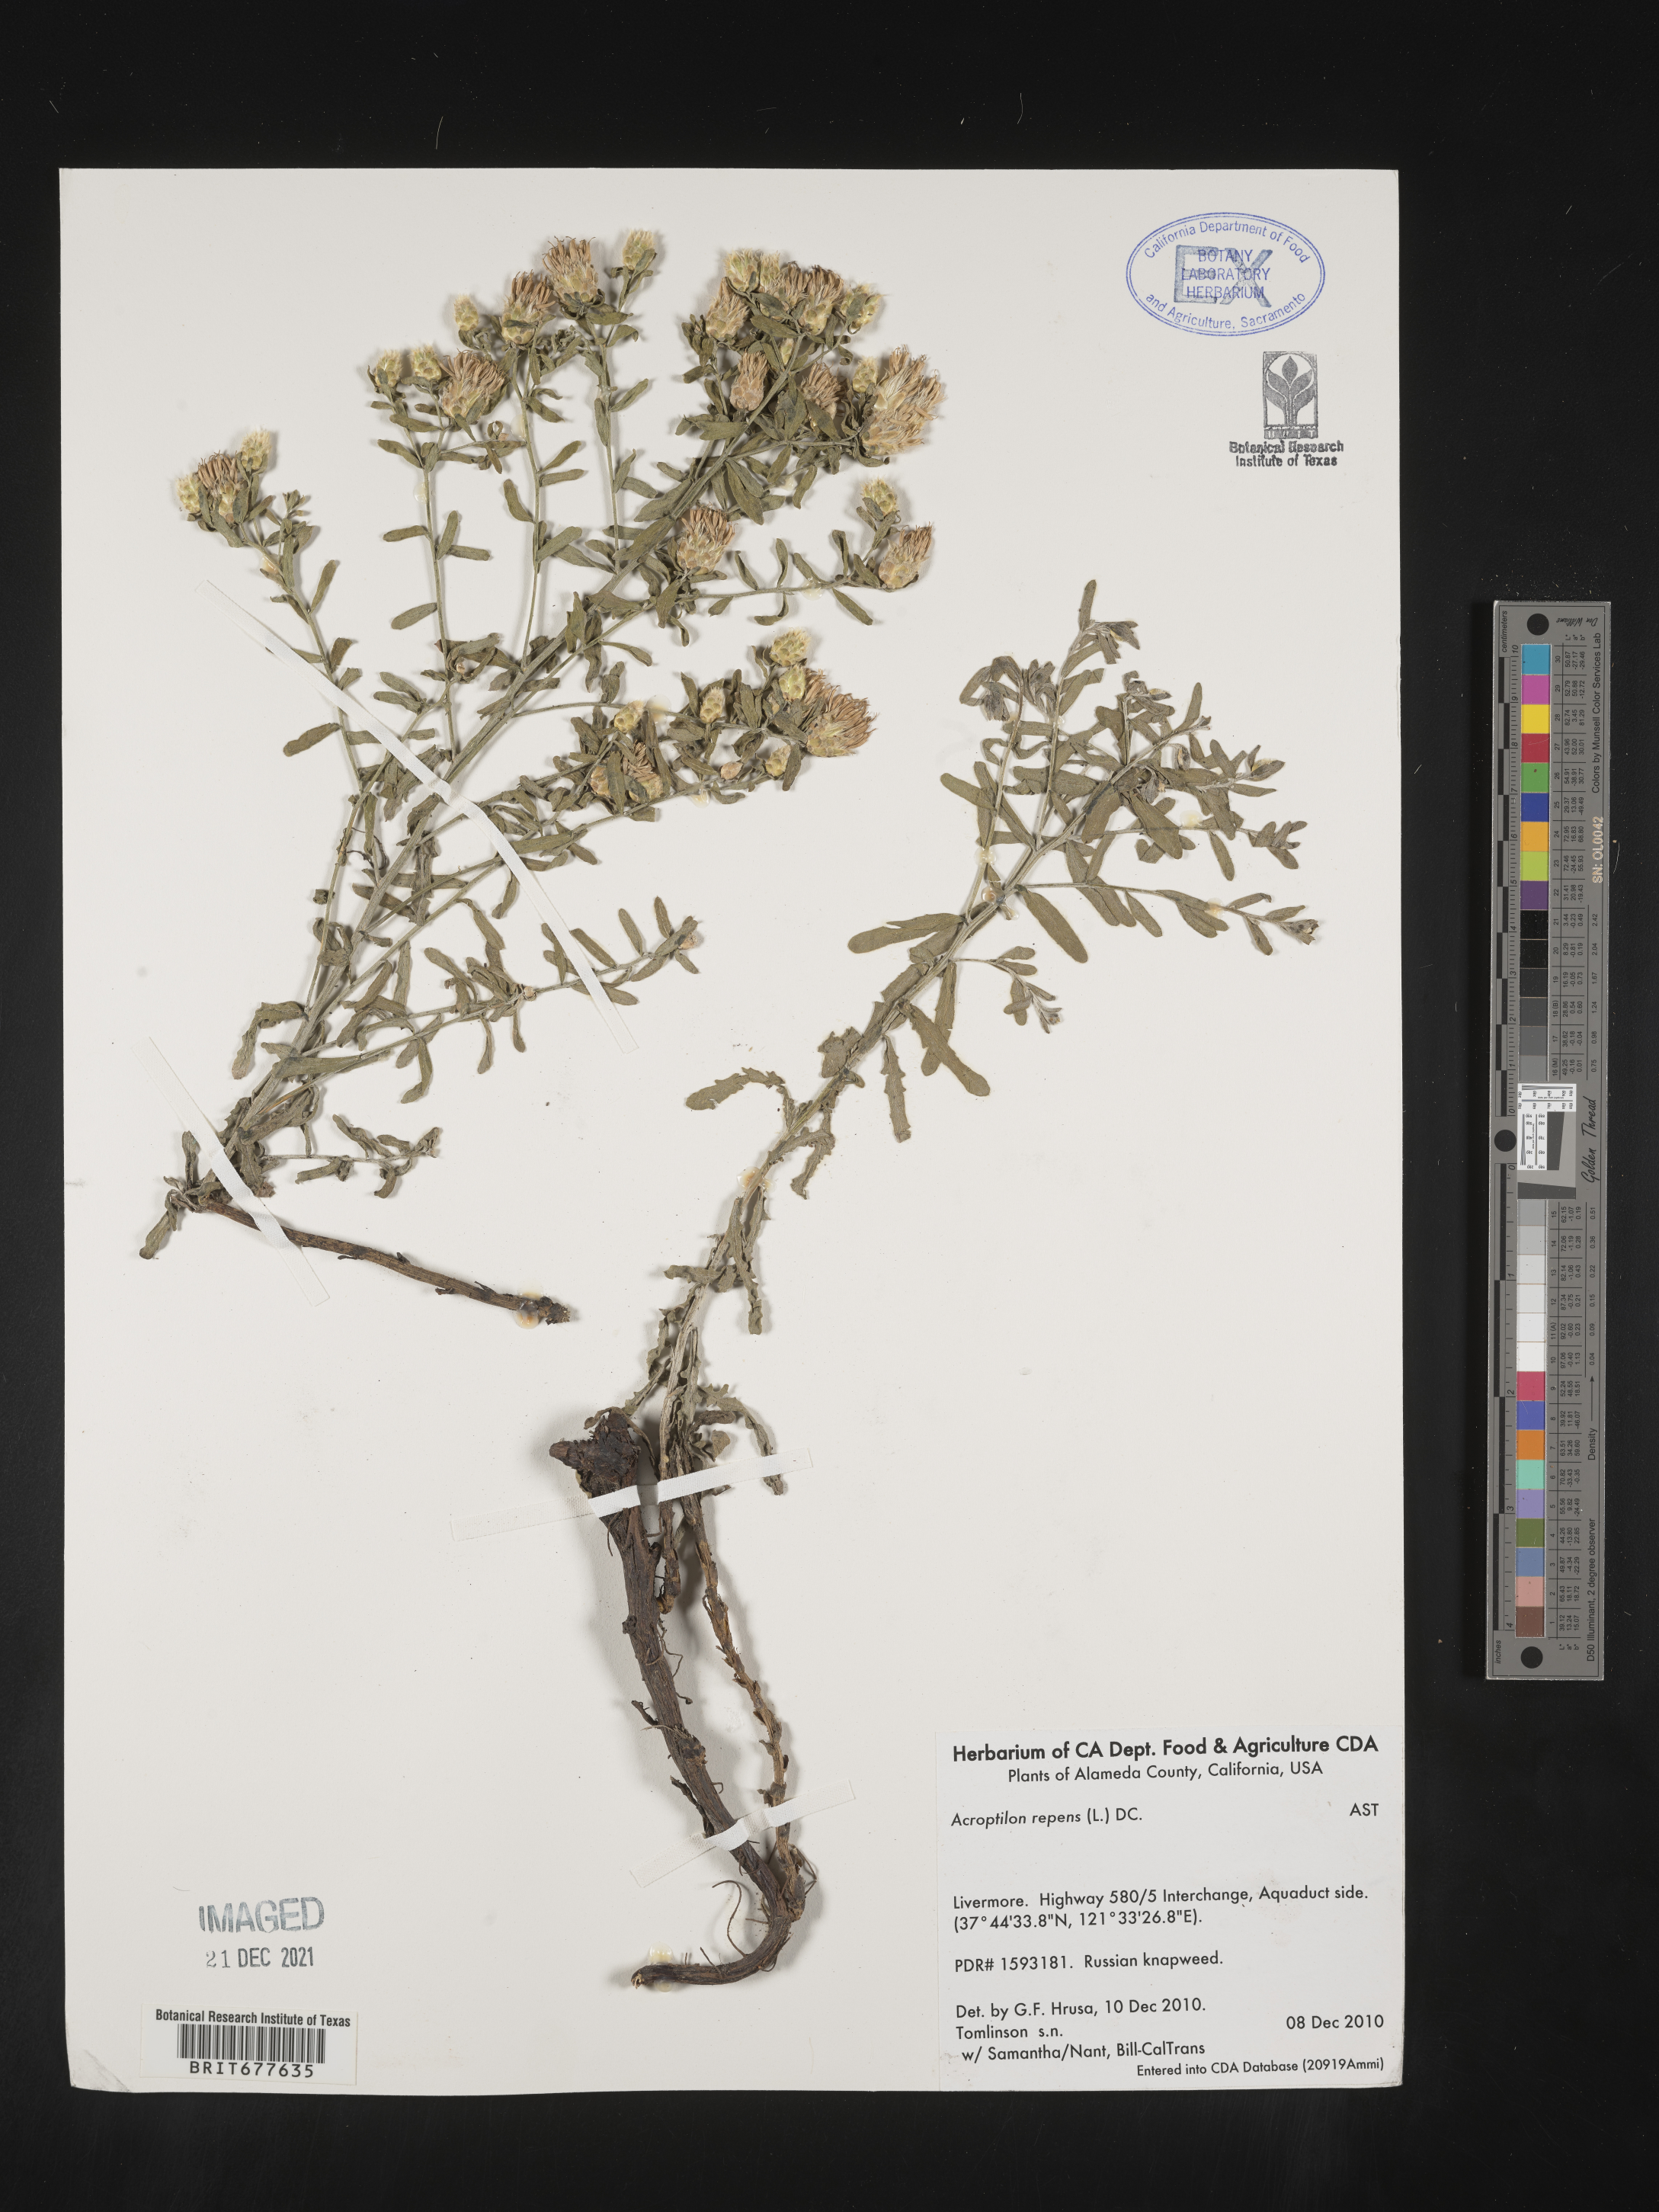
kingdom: Plantae
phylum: Tracheophyta
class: Magnoliopsida
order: Asterales
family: Asteraceae
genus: Leuzea
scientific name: Leuzea repens
